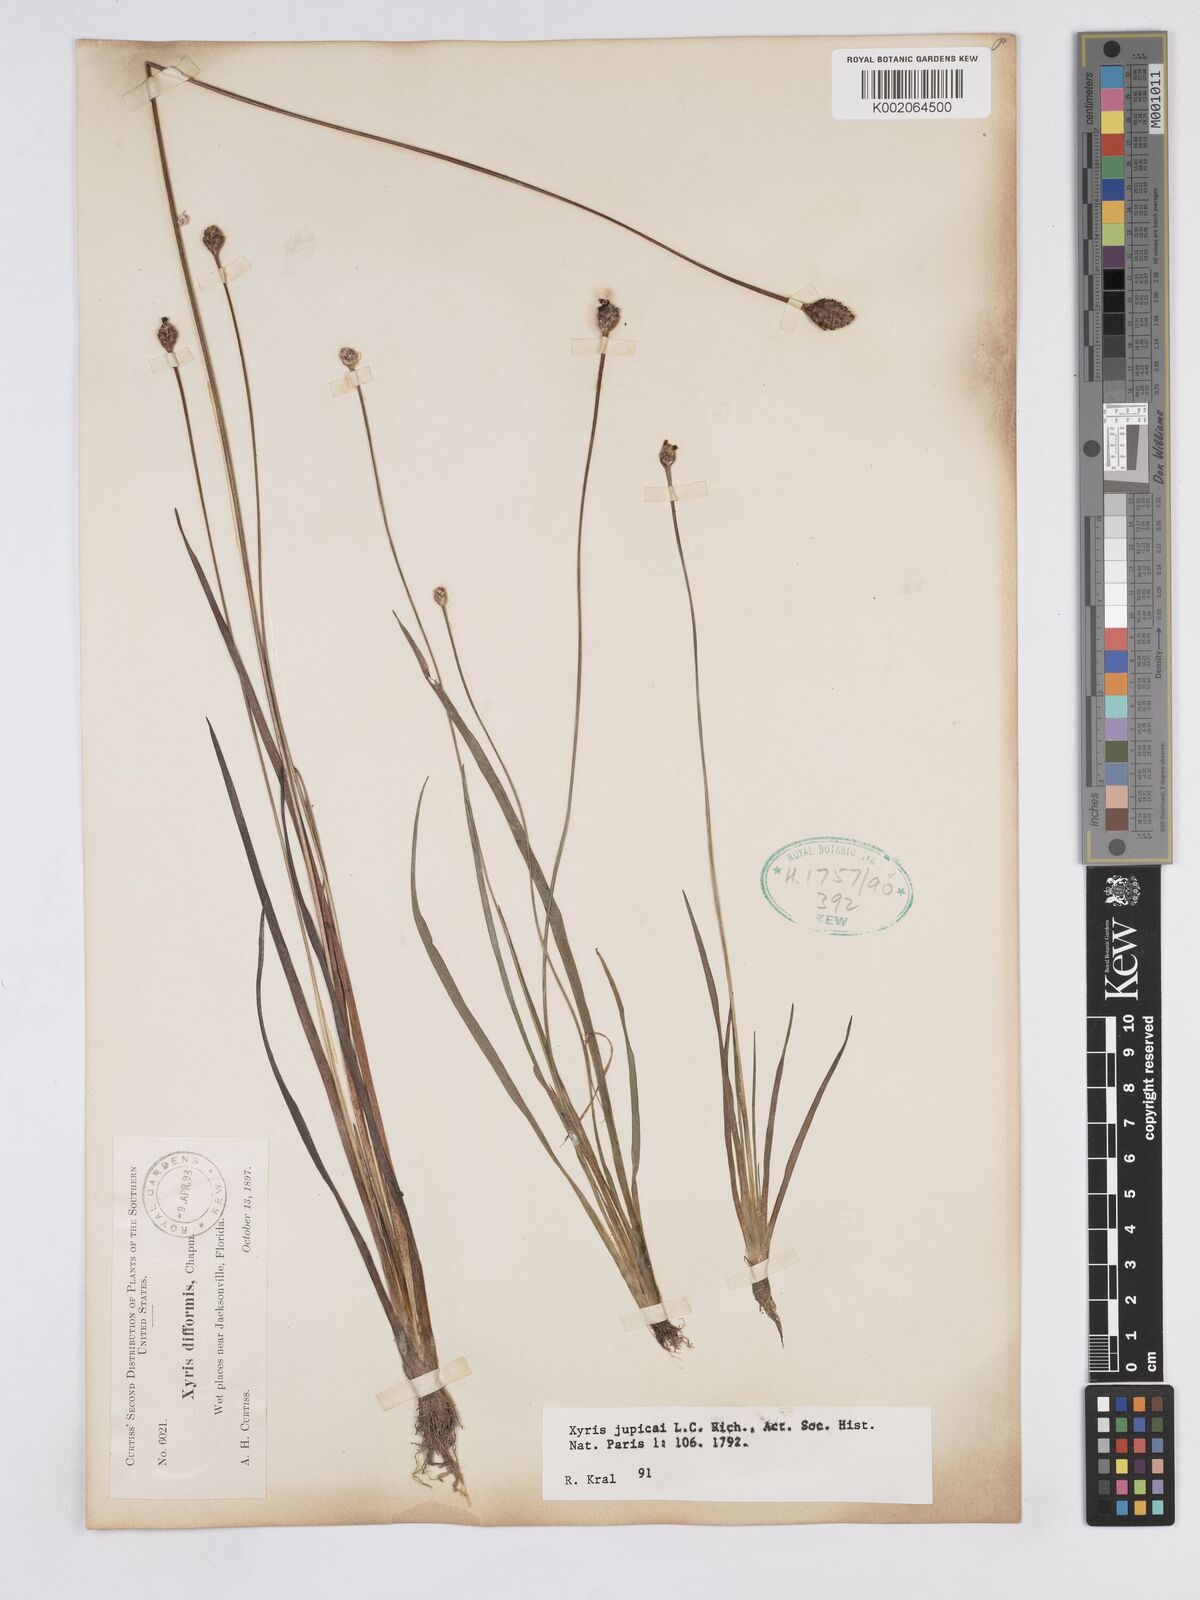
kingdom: Plantae
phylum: Tracheophyta
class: Liliopsida
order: Poales
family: Xyridaceae
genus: Xyris
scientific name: Xyris jupicai
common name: Richard's yelloweyed grass
